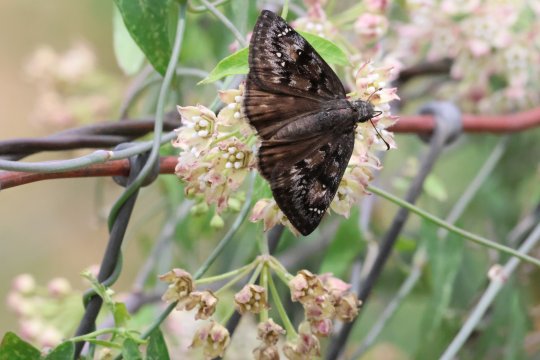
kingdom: Animalia
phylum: Arthropoda
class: Insecta
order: Lepidoptera
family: Hesperiidae
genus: Erynnis
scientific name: Erynnis tristis
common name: Mournful Duskywing
